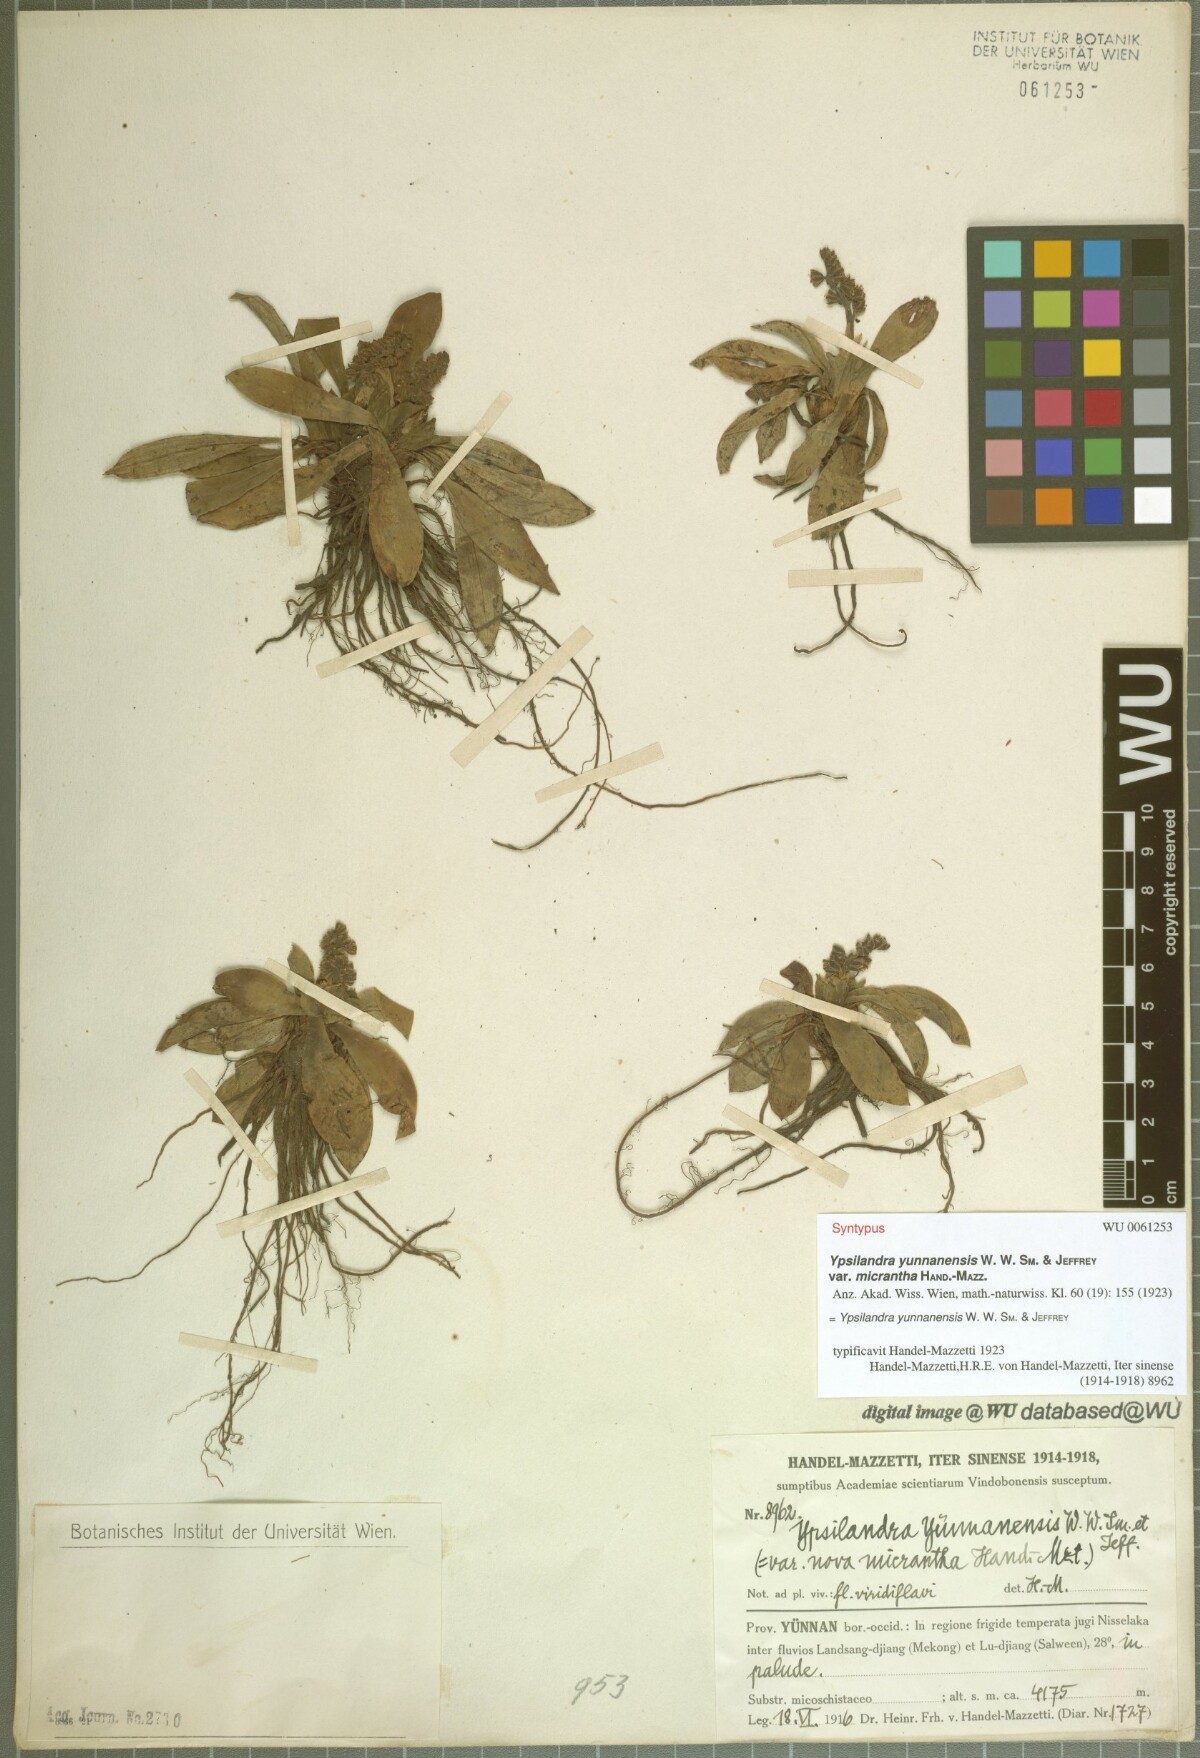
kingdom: Plantae
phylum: Tracheophyta
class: Liliopsida
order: Liliales
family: Melanthiaceae
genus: Helonias
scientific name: Helonias yunnanensis
